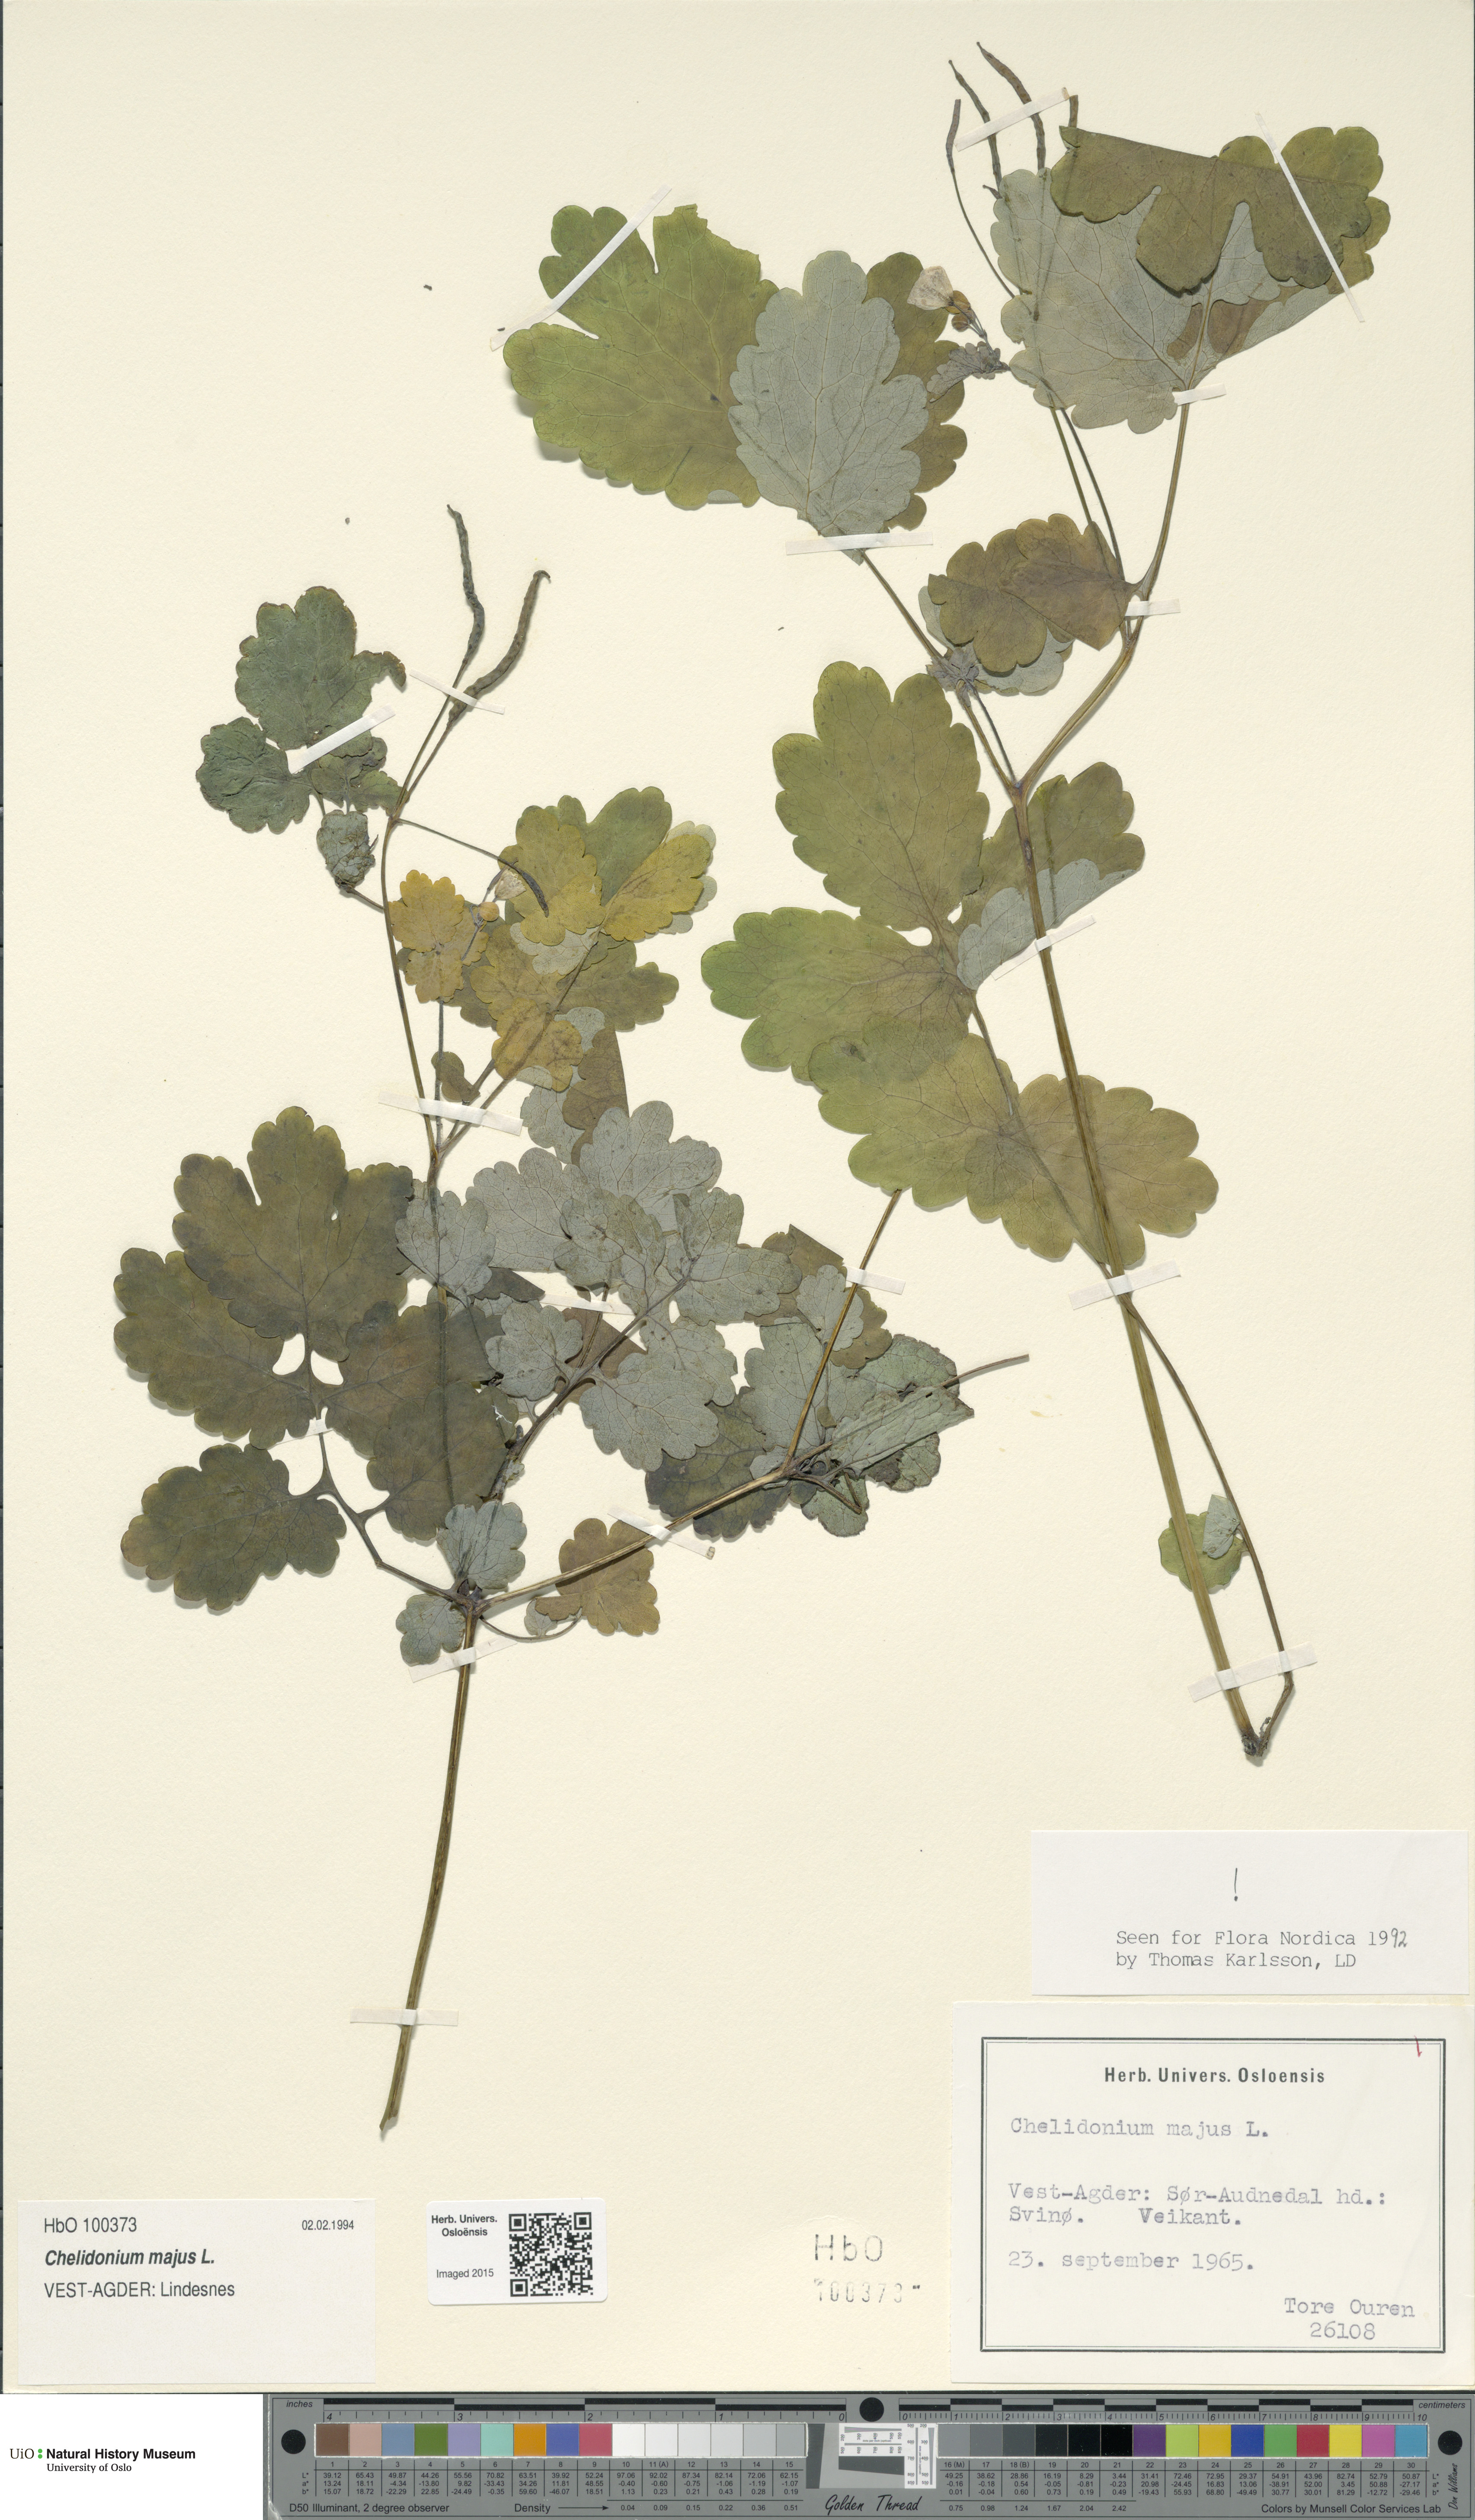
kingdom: Plantae
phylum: Tracheophyta
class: Magnoliopsida
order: Ranunculales
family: Papaveraceae
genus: Chelidonium
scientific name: Chelidonium majus
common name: Greater celandine
